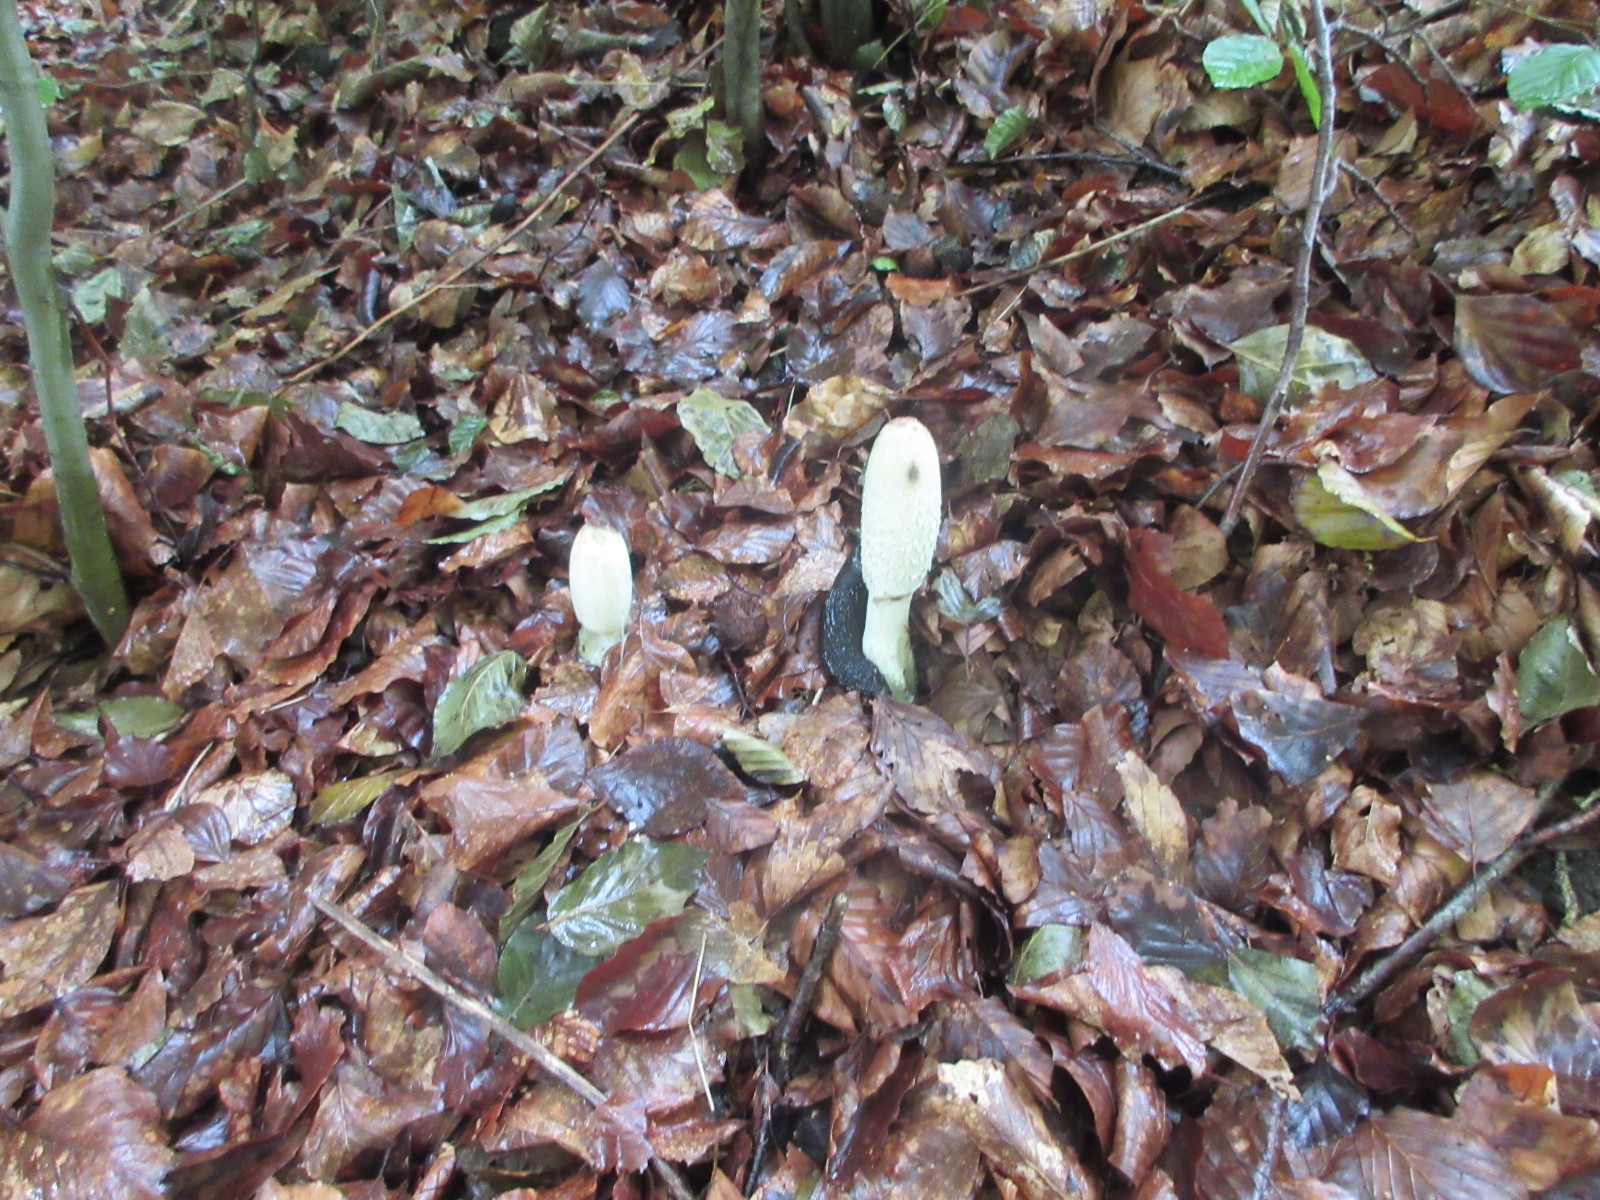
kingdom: Fungi
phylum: Basidiomycota
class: Agaricomycetes
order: Agaricales
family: Agaricaceae
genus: Coprinus
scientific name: Coprinus comatus
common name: stor parykhat
